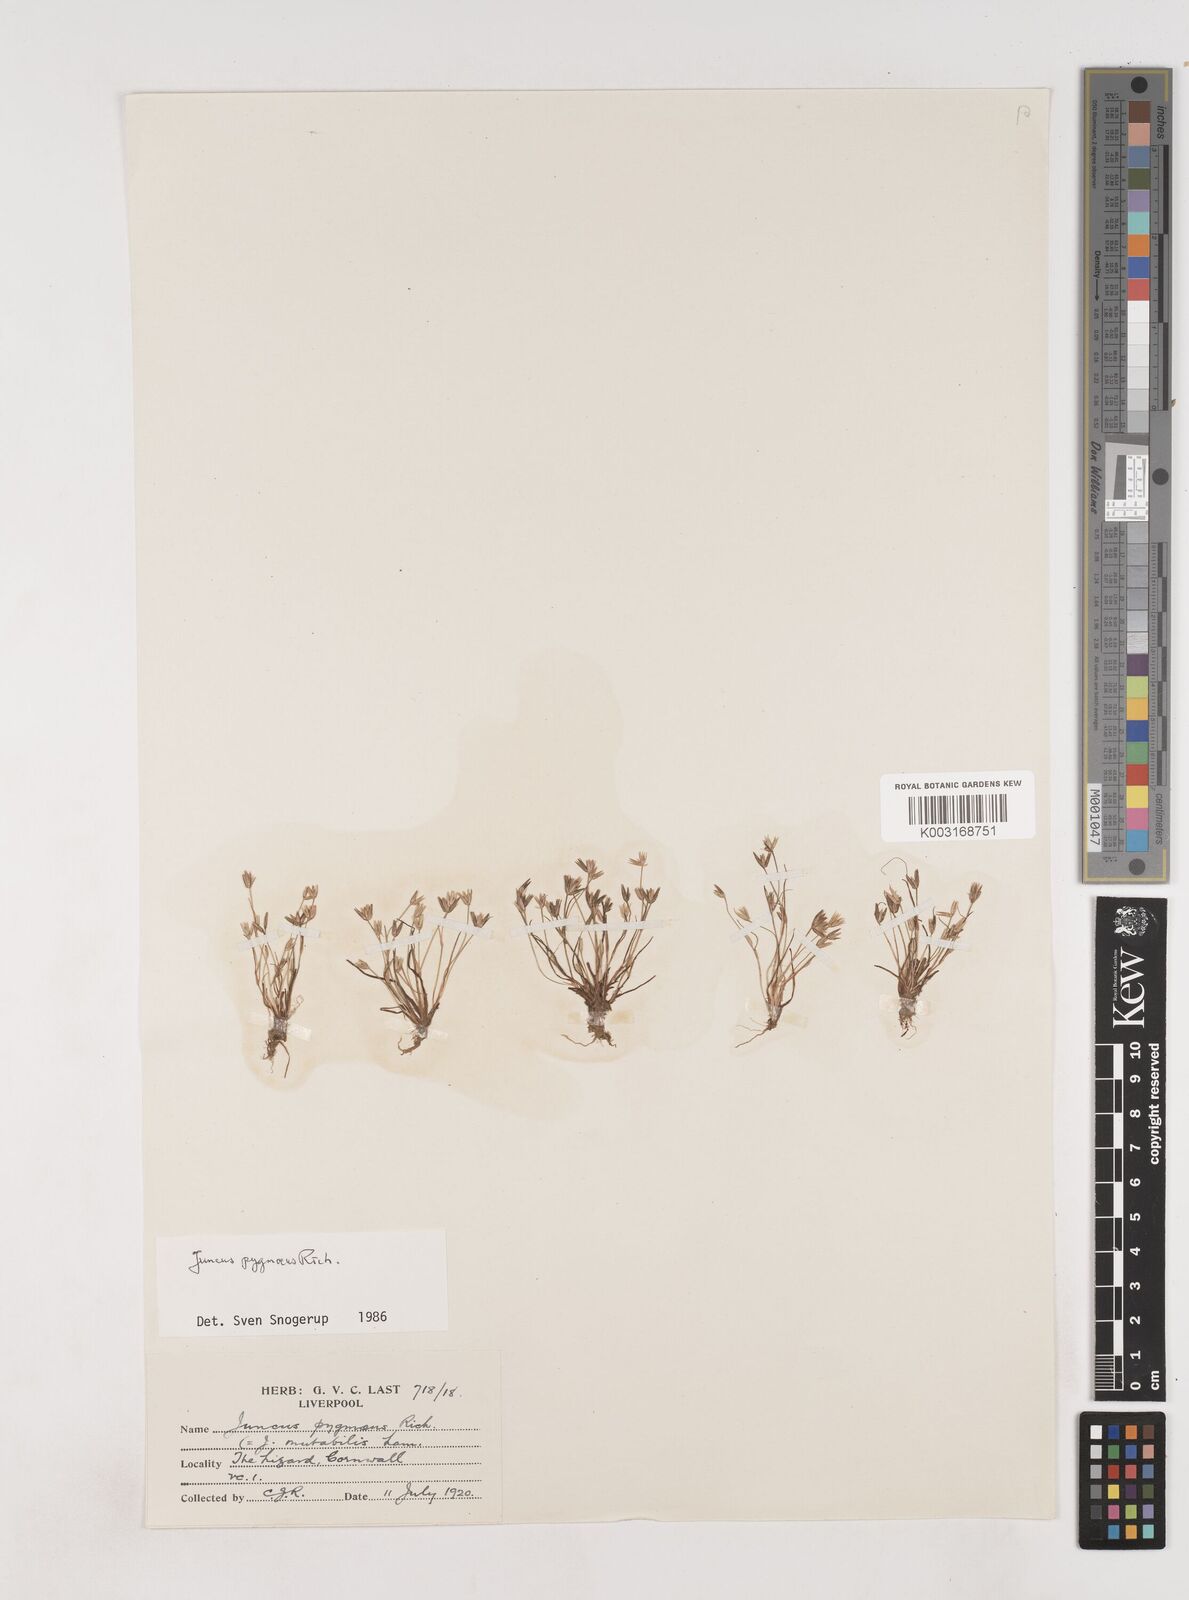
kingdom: Plantae
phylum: Tracheophyta
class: Liliopsida
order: Poales
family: Juncaceae
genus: Juncus
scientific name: Juncus pygmaeus
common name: Pigmy rush
